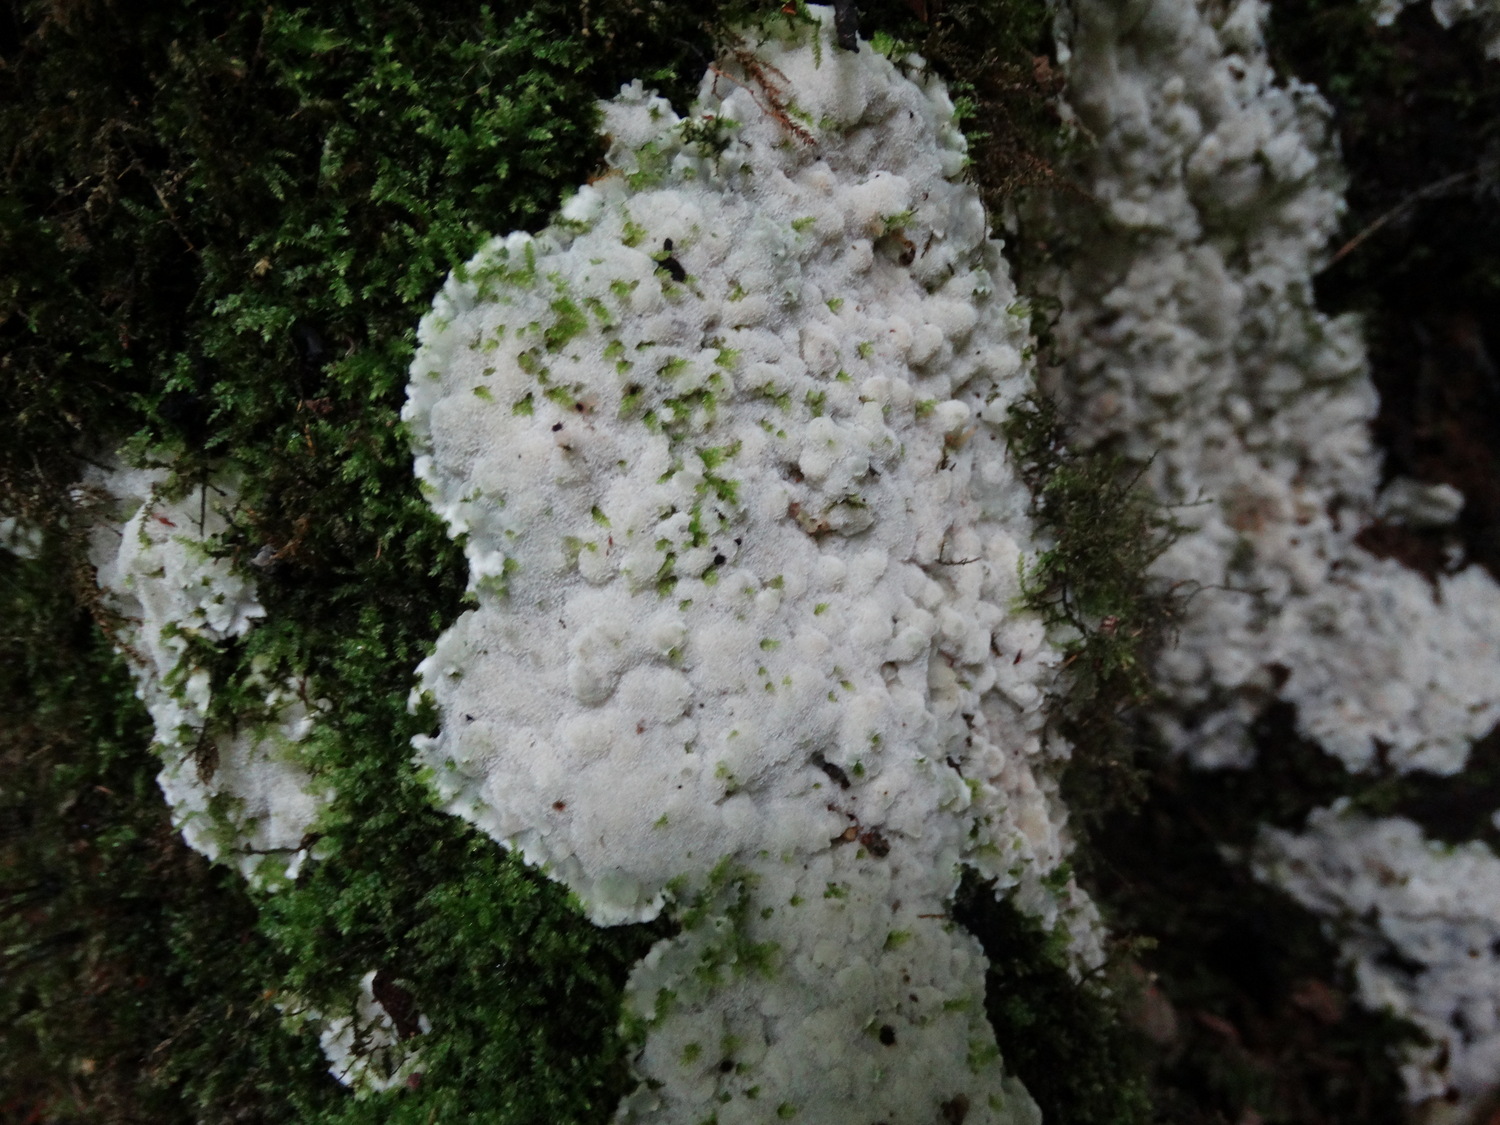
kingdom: Fungi
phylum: Basidiomycota
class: Agaricomycetes
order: Polyporales
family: Meruliaceae
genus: Physisporinus
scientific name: Physisporinus vitreus
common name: mastesvamp
